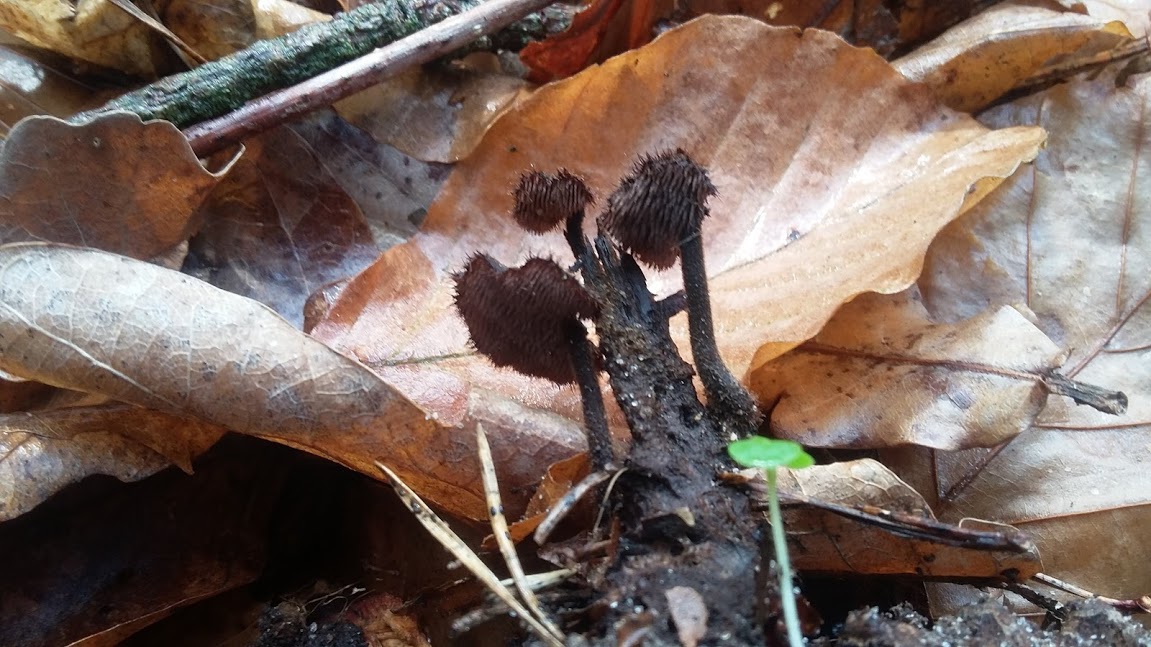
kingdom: Fungi
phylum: Basidiomycota
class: Agaricomycetes
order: Russulales
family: Auriscalpiaceae
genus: Auriscalpium
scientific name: Auriscalpium vulgare
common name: koglepigsvamp
